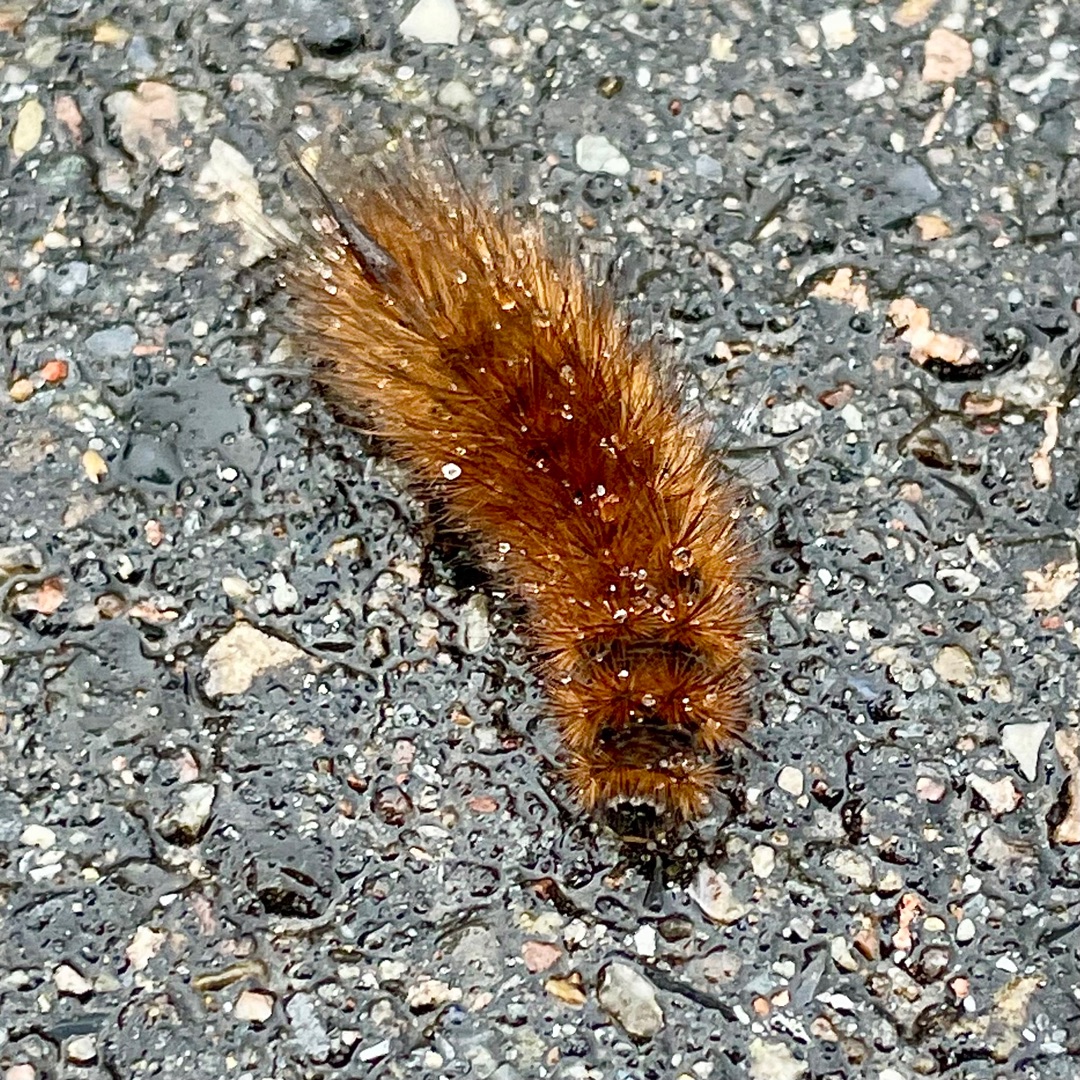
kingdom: Animalia
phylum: Arthropoda
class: Insecta
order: Lepidoptera
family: Erebidae
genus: Phragmatobia
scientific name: Phragmatobia fuliginosa
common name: Kanelbjørn
